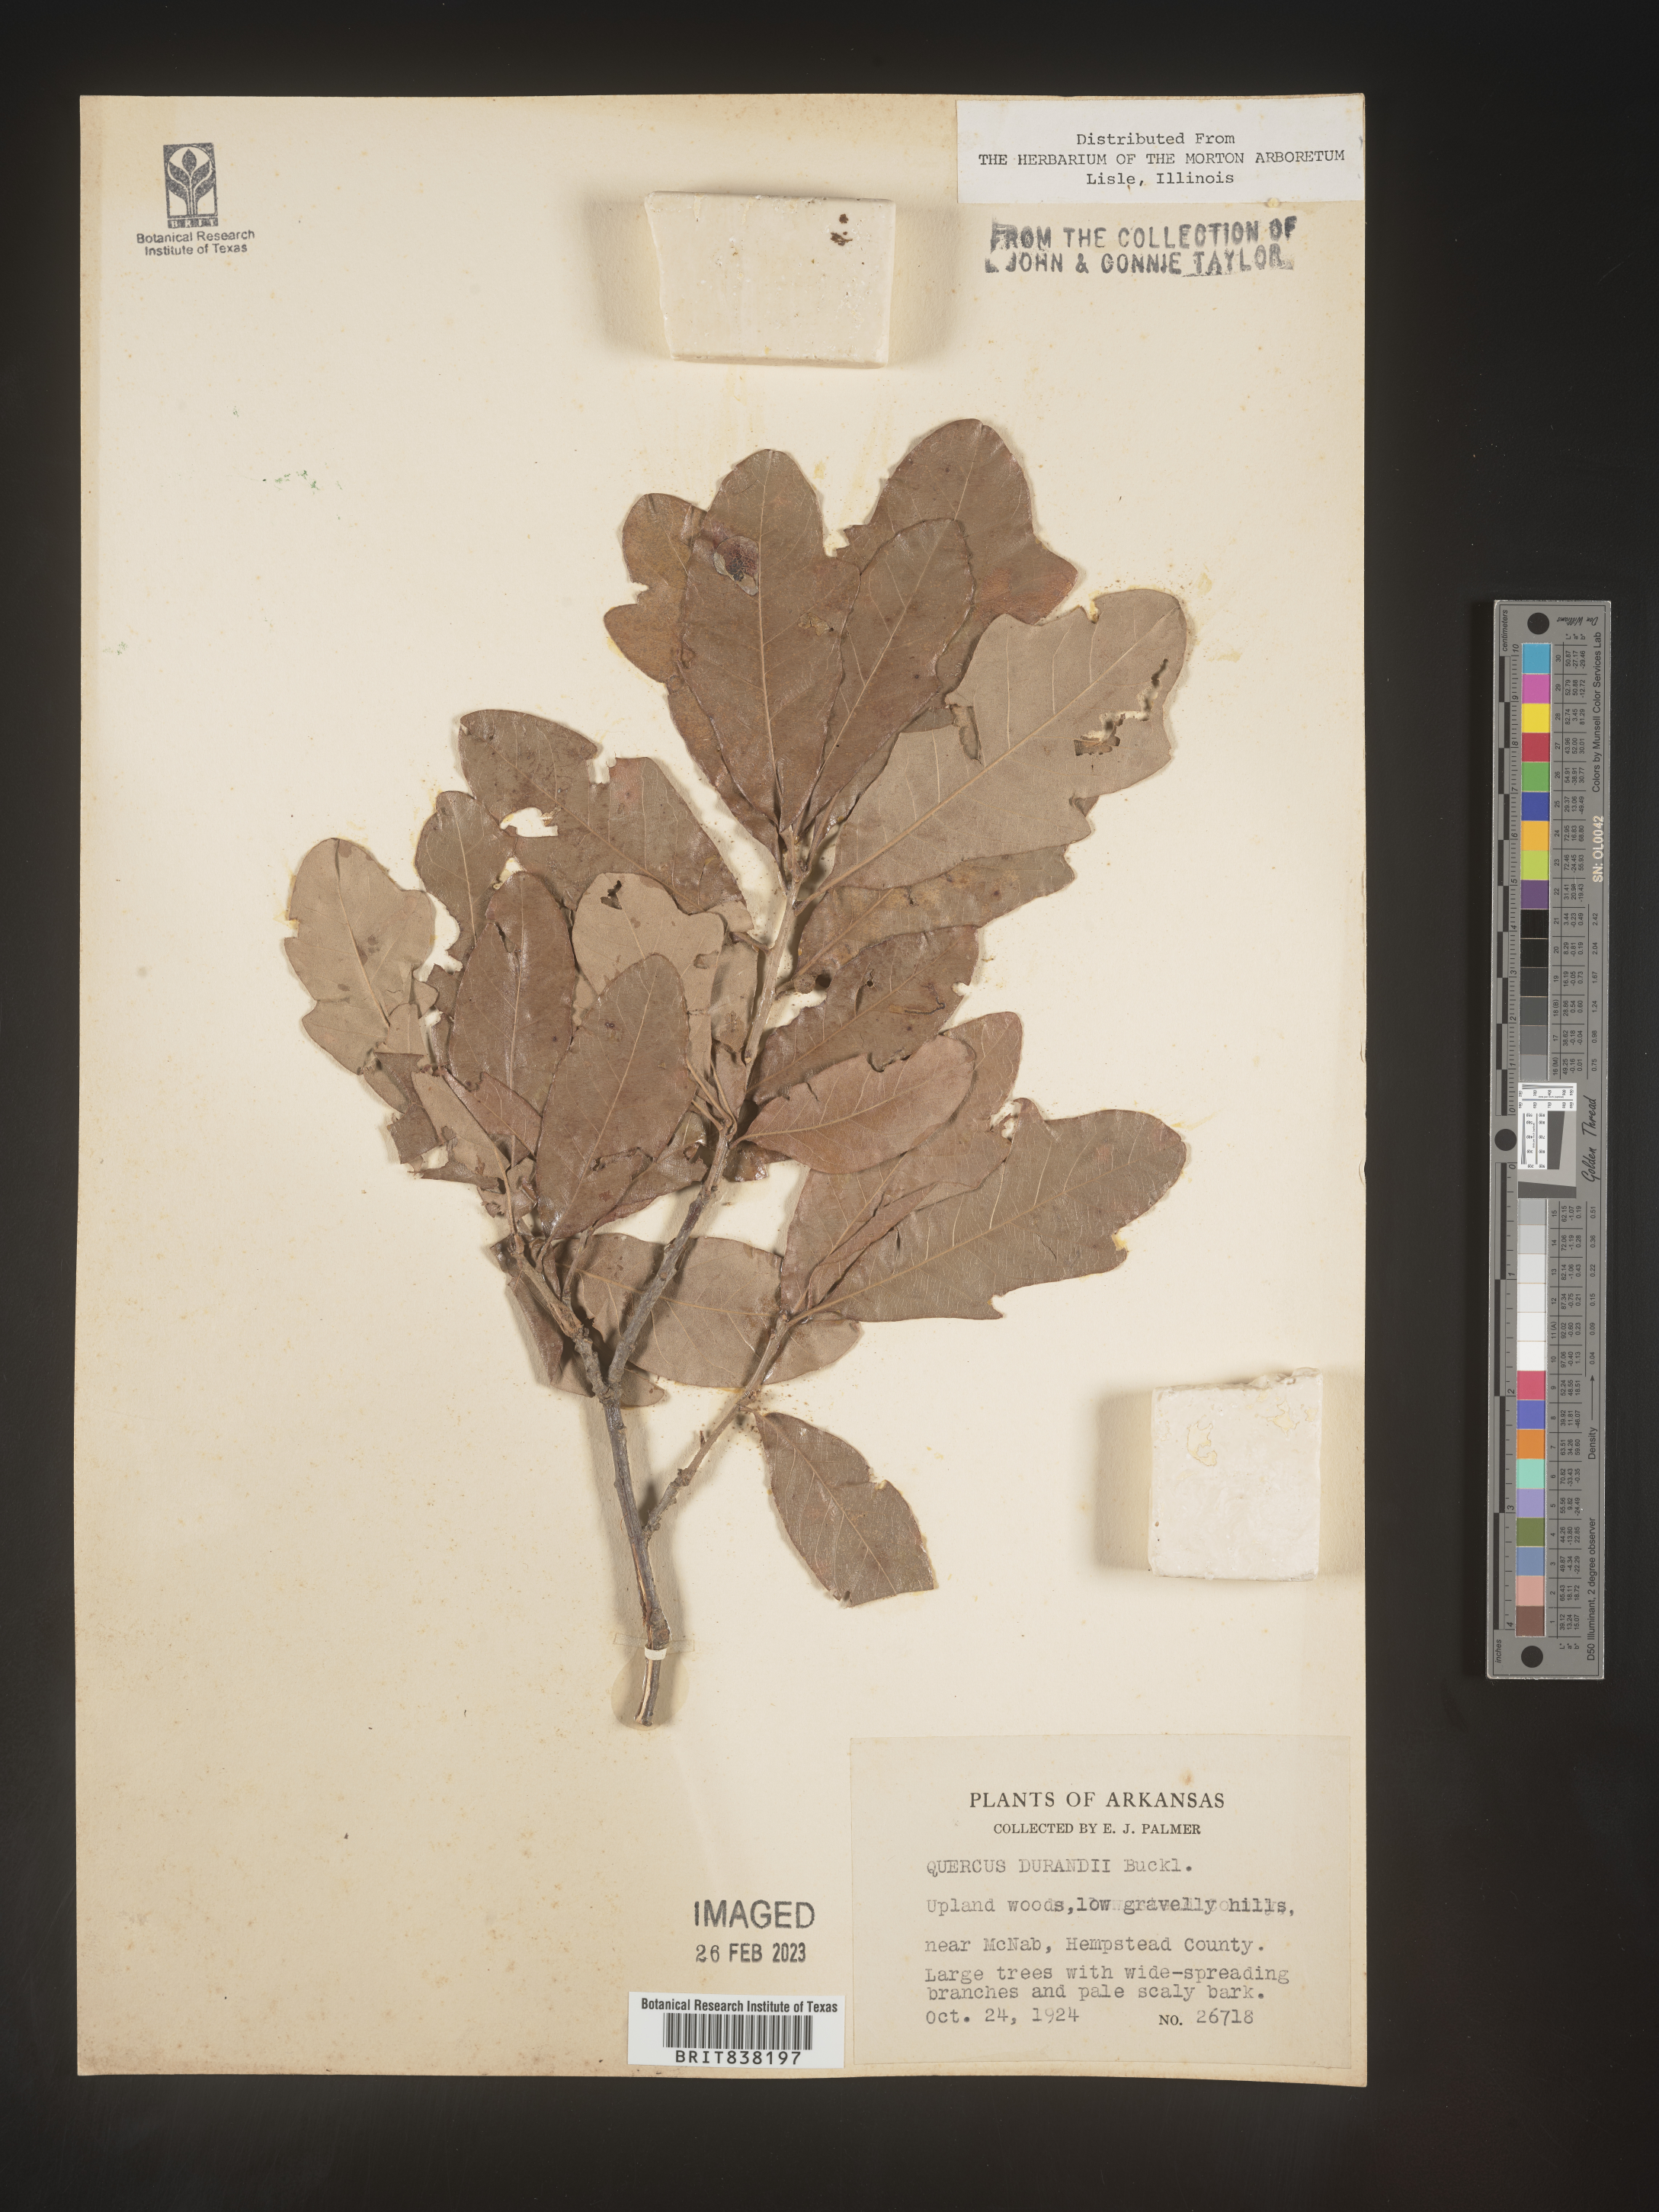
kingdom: Plantae
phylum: Tracheophyta
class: Magnoliopsida
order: Fagales
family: Fagaceae
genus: Quercus
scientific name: Quercus sinuata
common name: Durand oak
